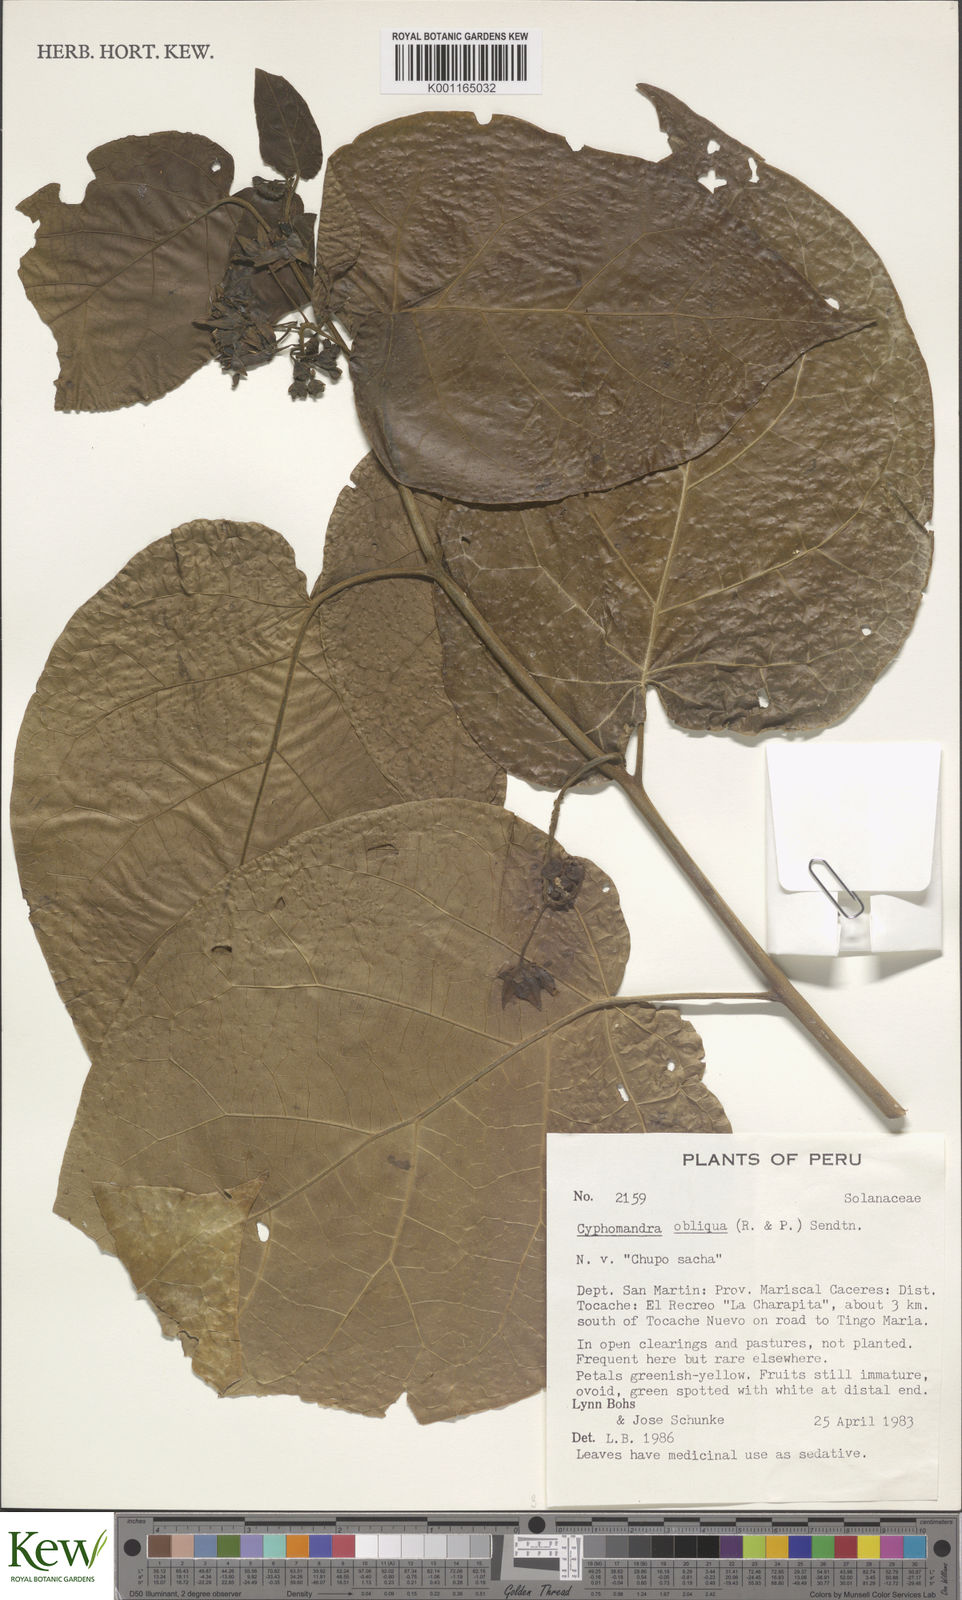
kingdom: Plantae
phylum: Tracheophyta
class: Magnoliopsida
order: Solanales
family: Solanaceae
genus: Solanum
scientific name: Solanum obliquum
